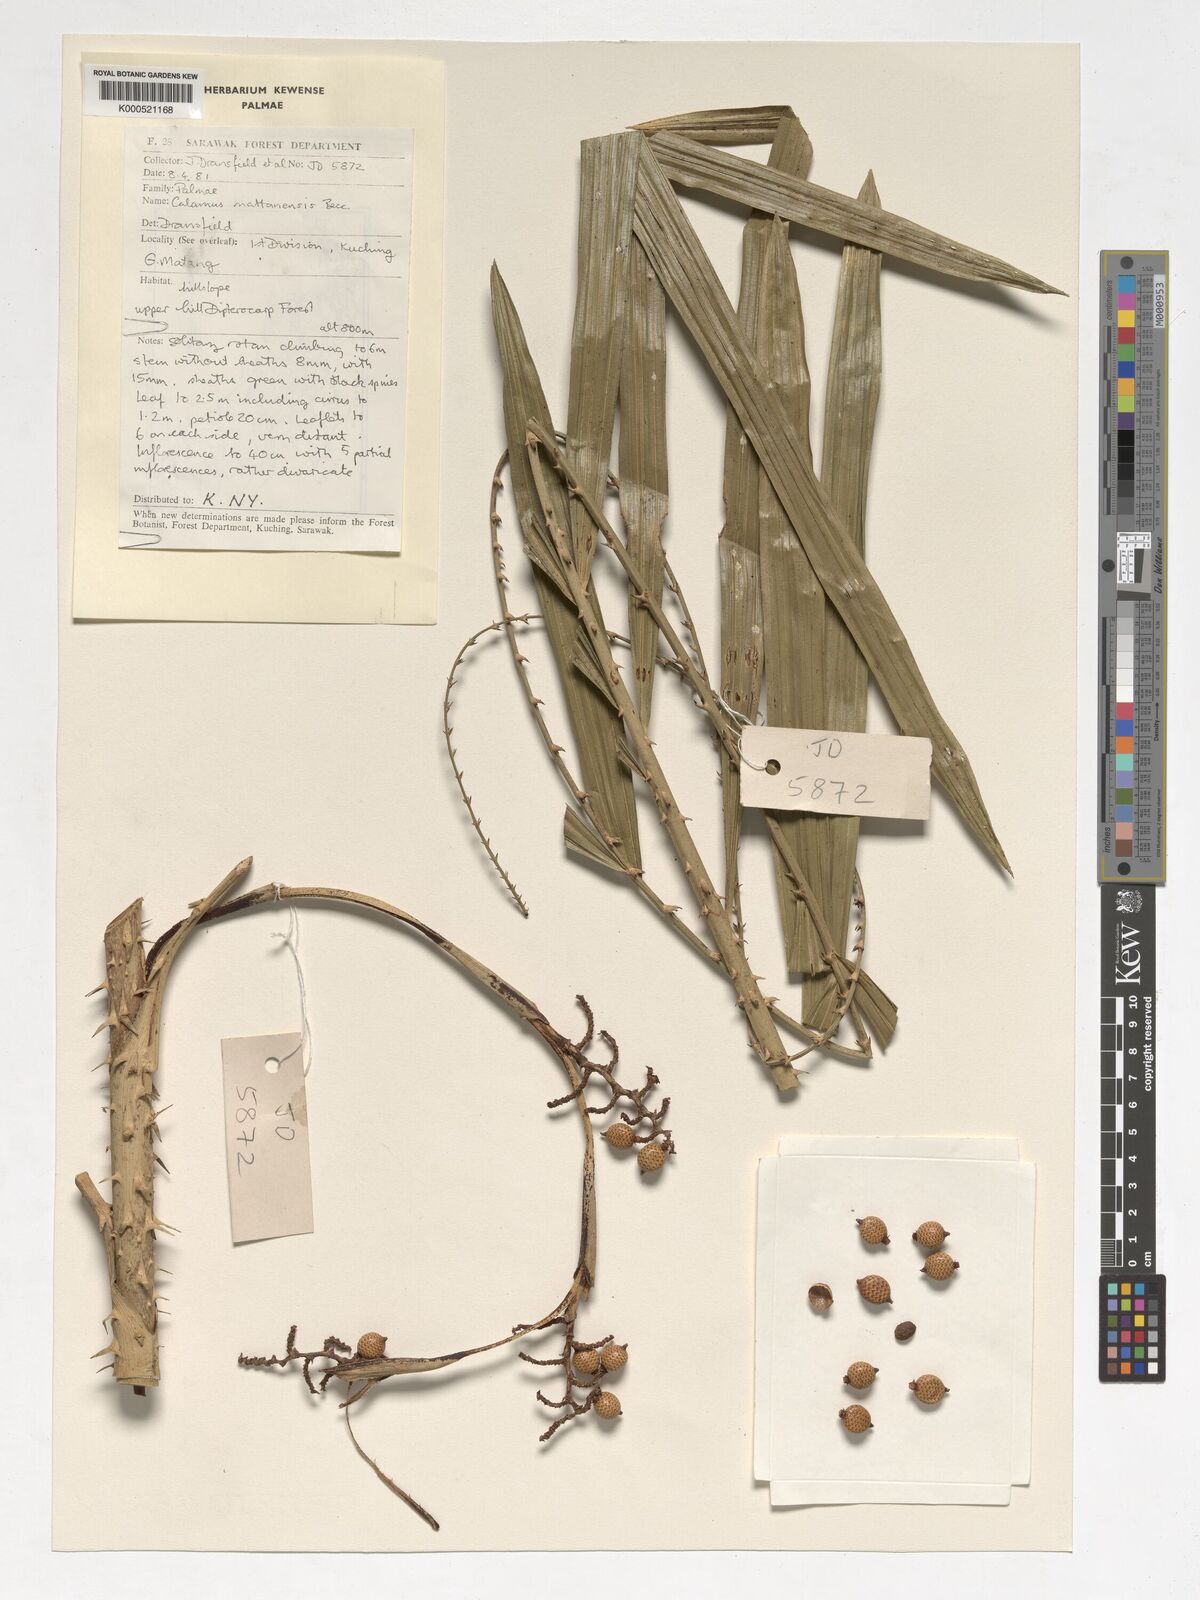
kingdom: Plantae
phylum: Tracheophyta
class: Liliopsida
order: Arecales
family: Arecaceae
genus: Calamus
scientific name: Calamus
